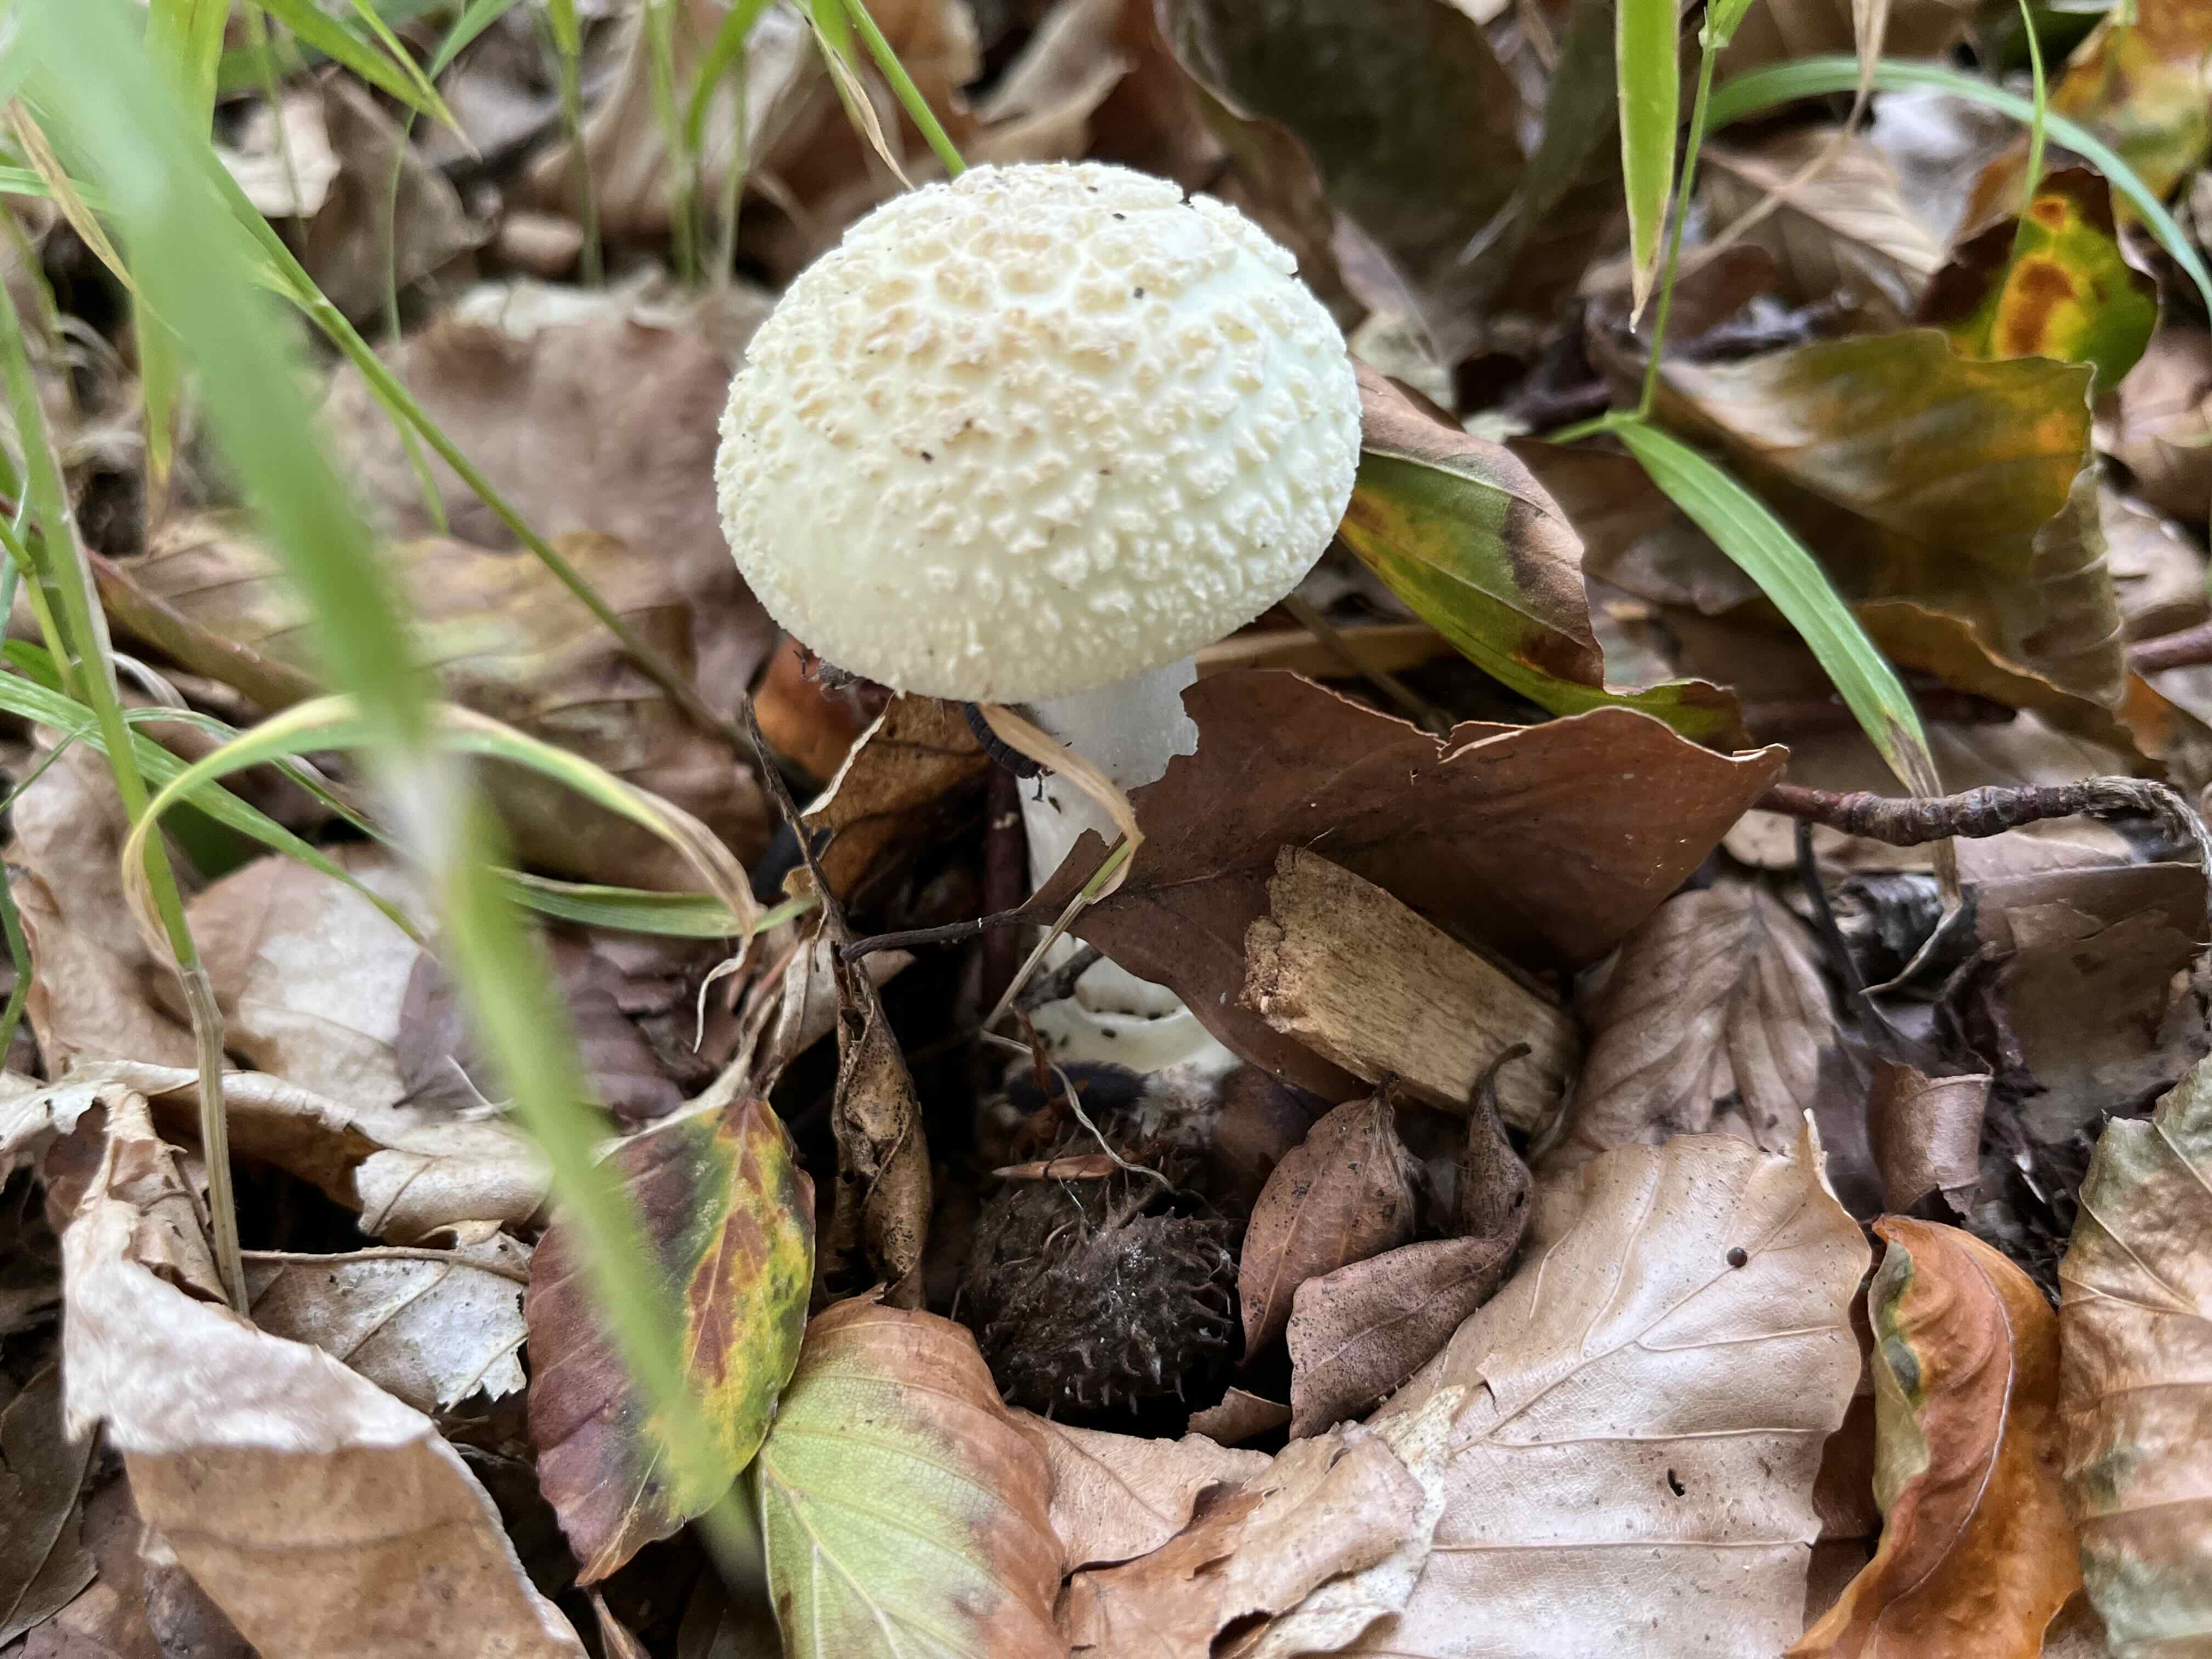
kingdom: Fungi
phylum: Basidiomycota
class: Agaricomycetes
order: Agaricales
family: Amanitaceae
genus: Amanita
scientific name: Amanita citrina
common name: kugleknoldet fluesvamp
